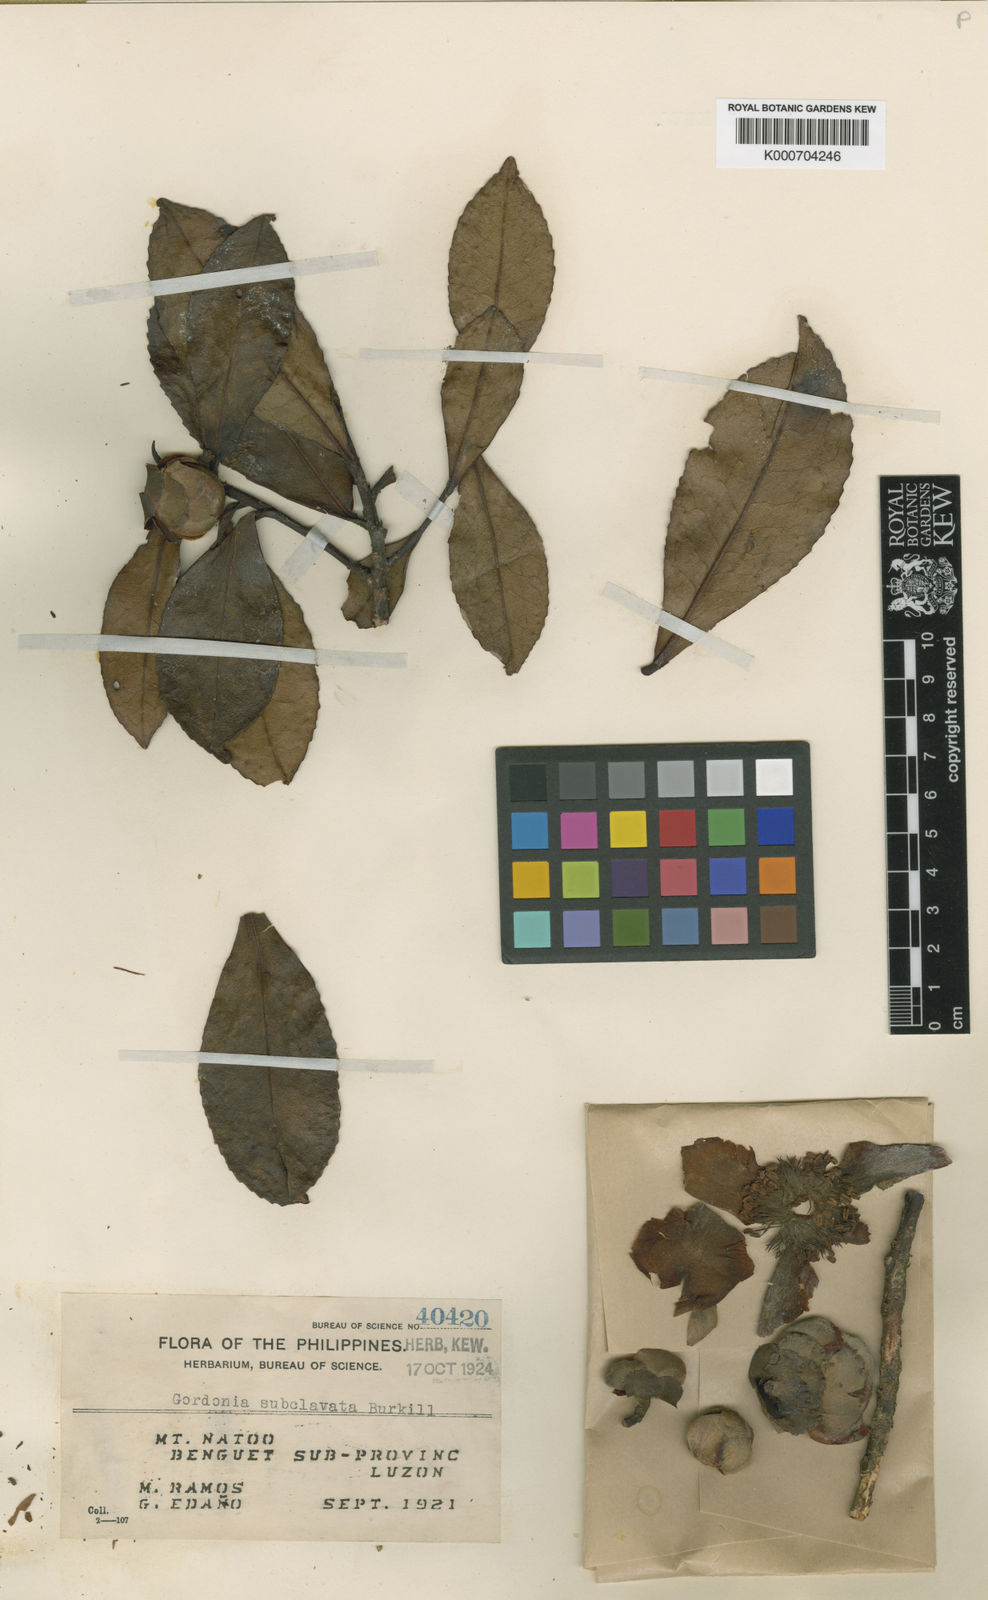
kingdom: Plantae
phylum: Tracheophyta
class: Magnoliopsida
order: Ericales
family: Theaceae
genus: Polyspora
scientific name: Polyspora luzonica
